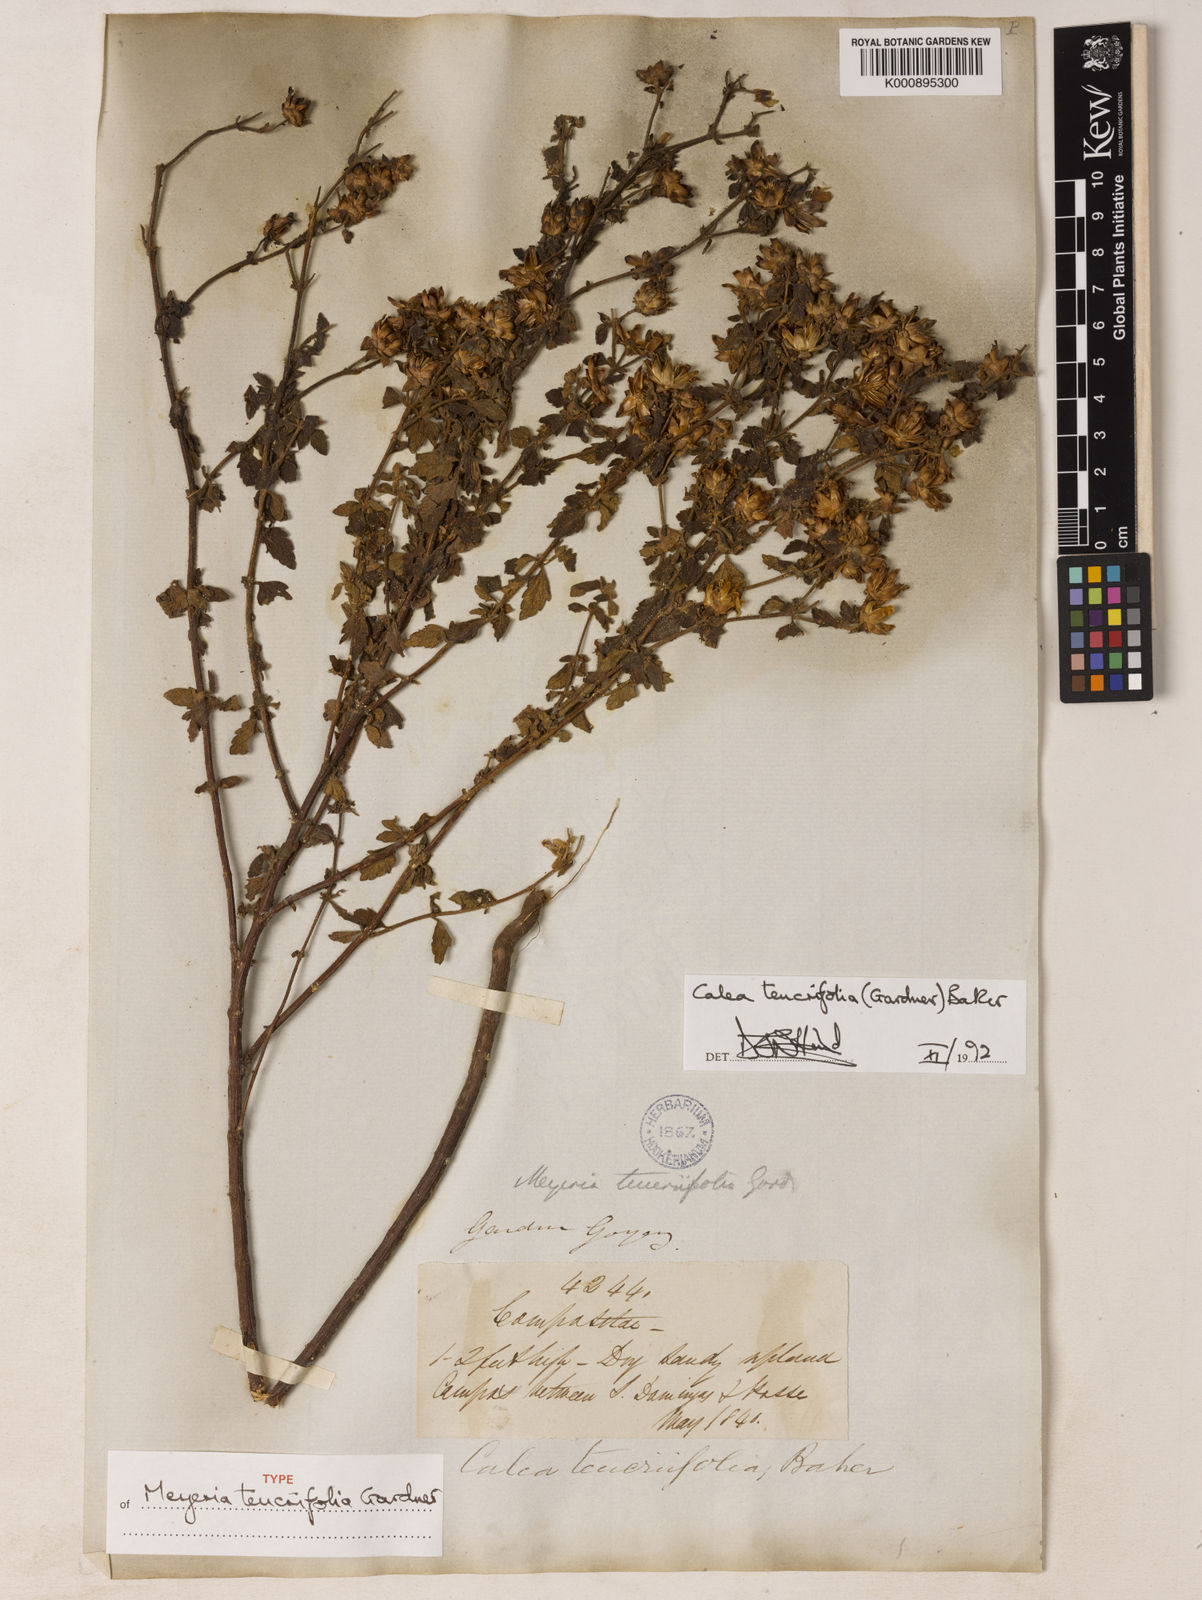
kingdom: Plantae
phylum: Tracheophyta
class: Magnoliopsida
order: Asterales
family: Asteraceae
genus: Calea
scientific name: Calea teucriifolia
